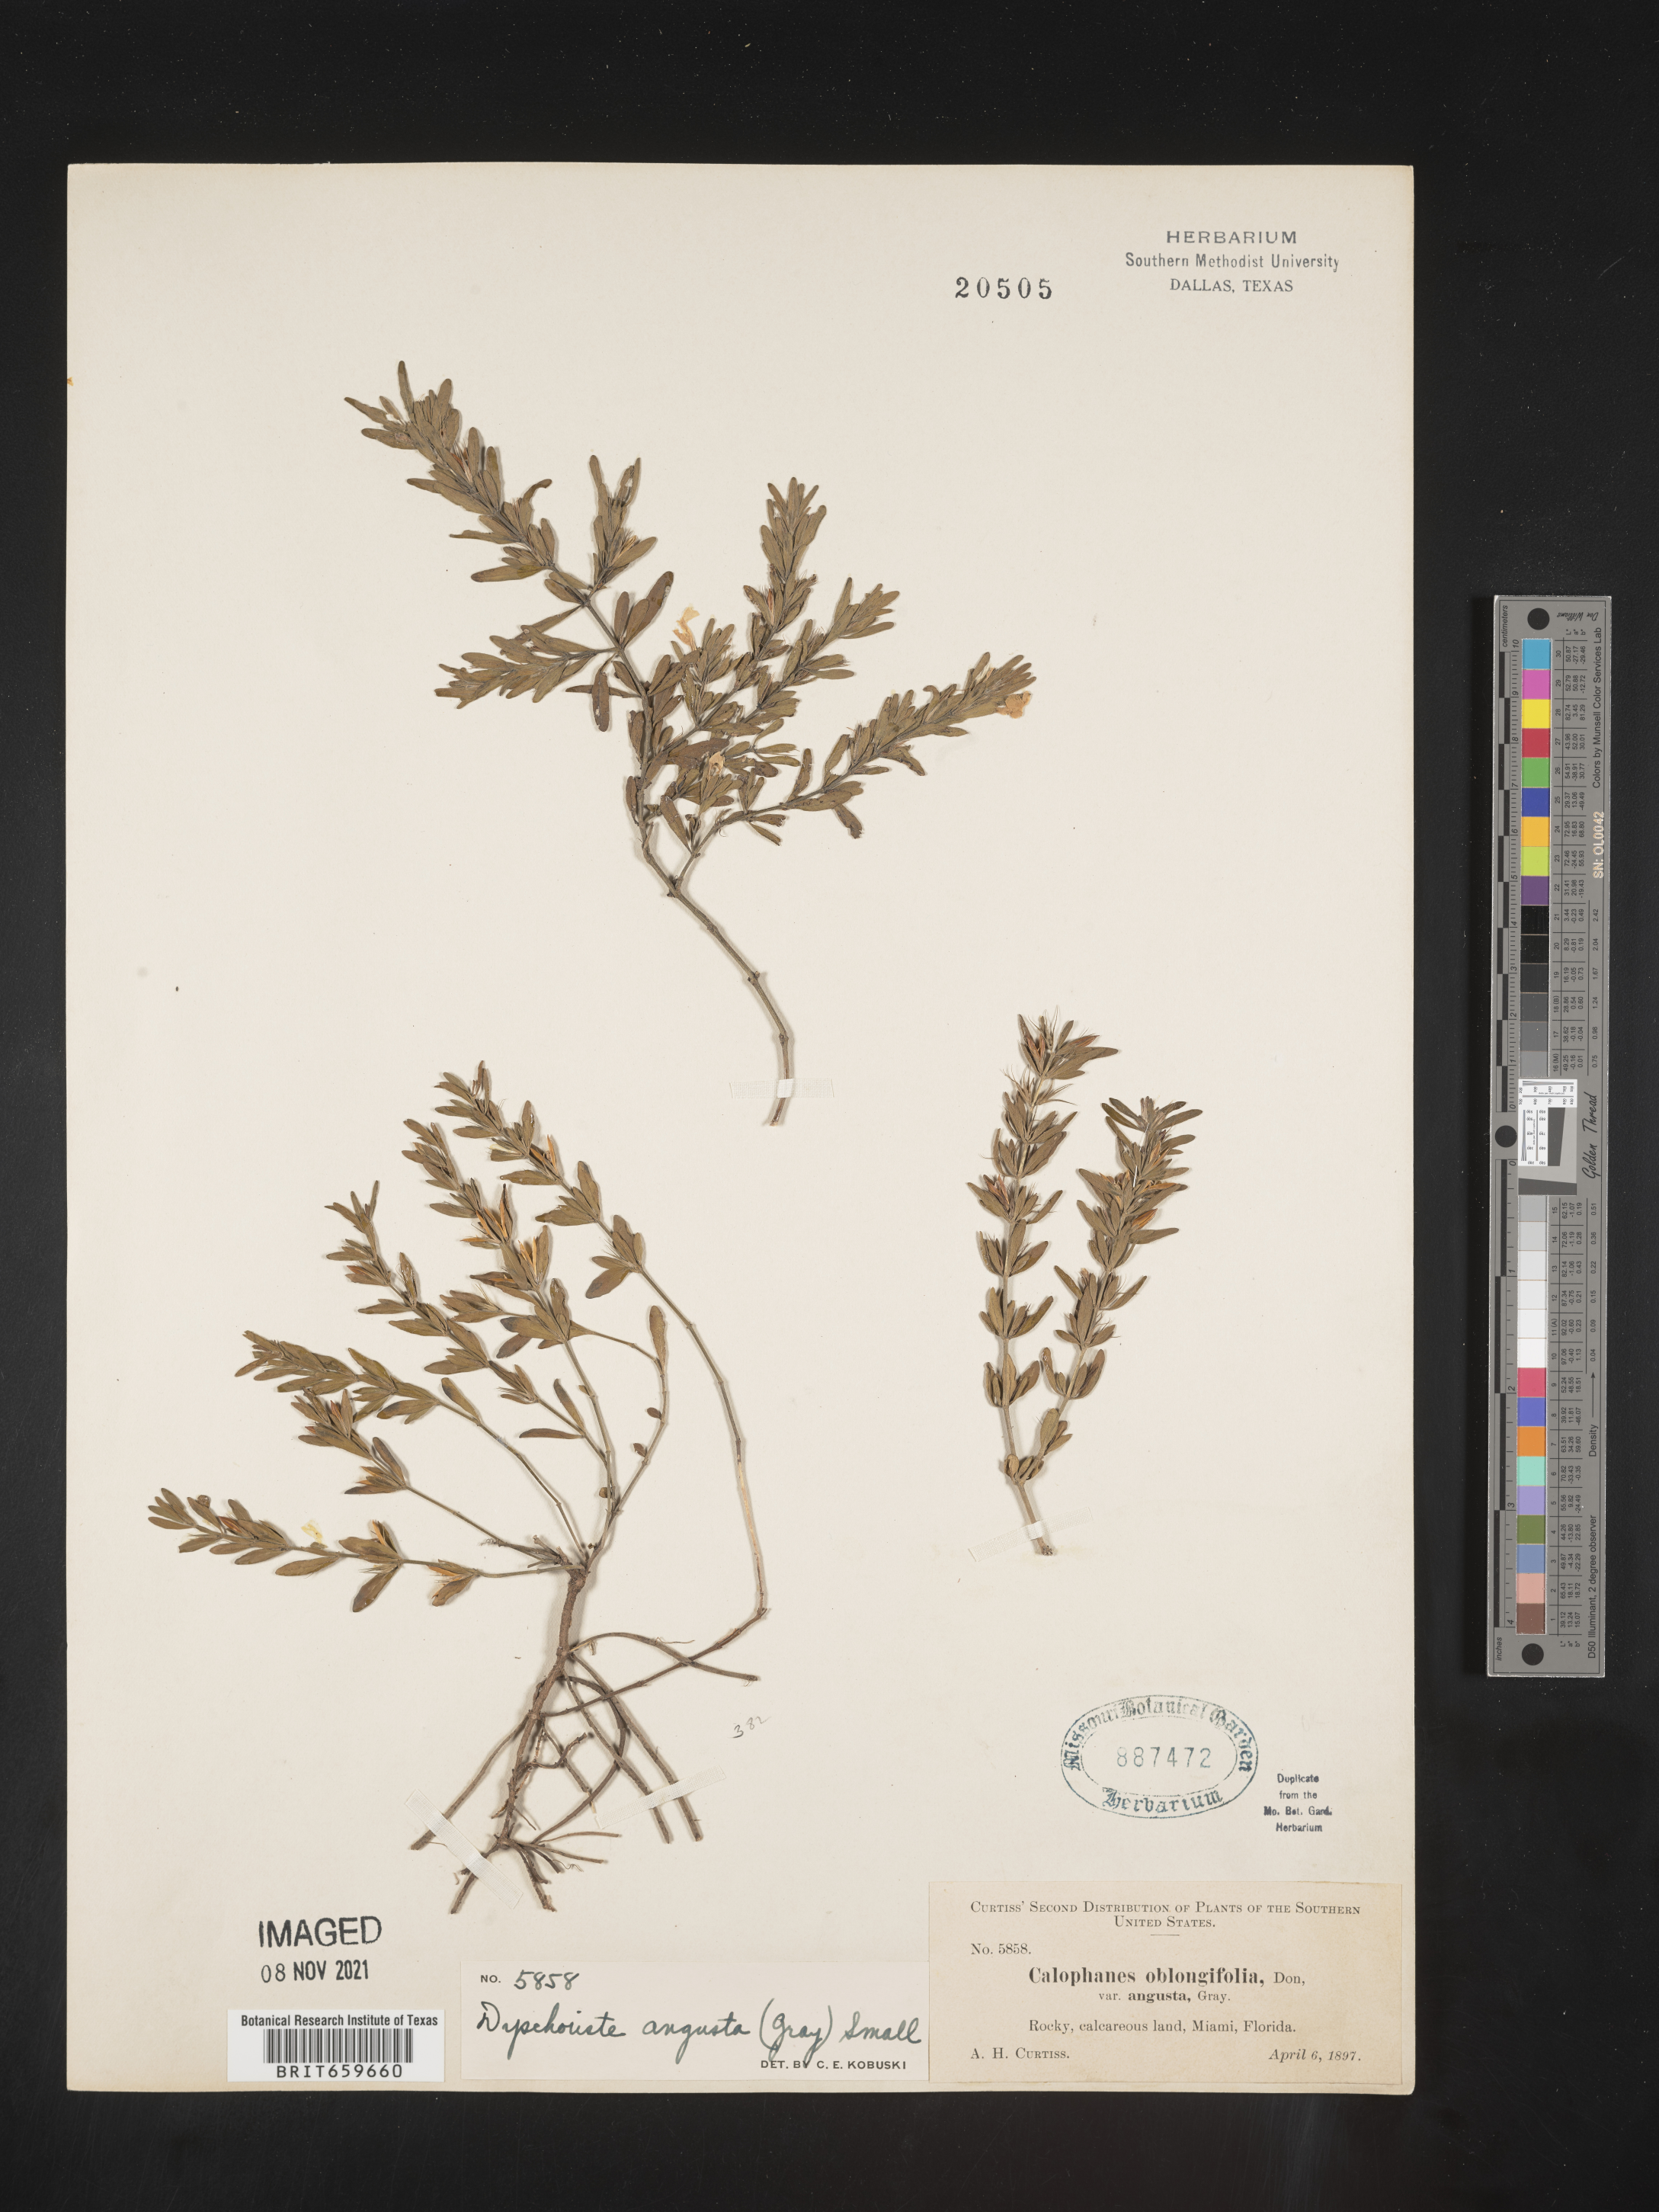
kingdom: Plantae
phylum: Tracheophyta
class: Magnoliopsida
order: Lamiales
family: Acanthaceae
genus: Dyschoriste
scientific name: Dyschoriste angusta
